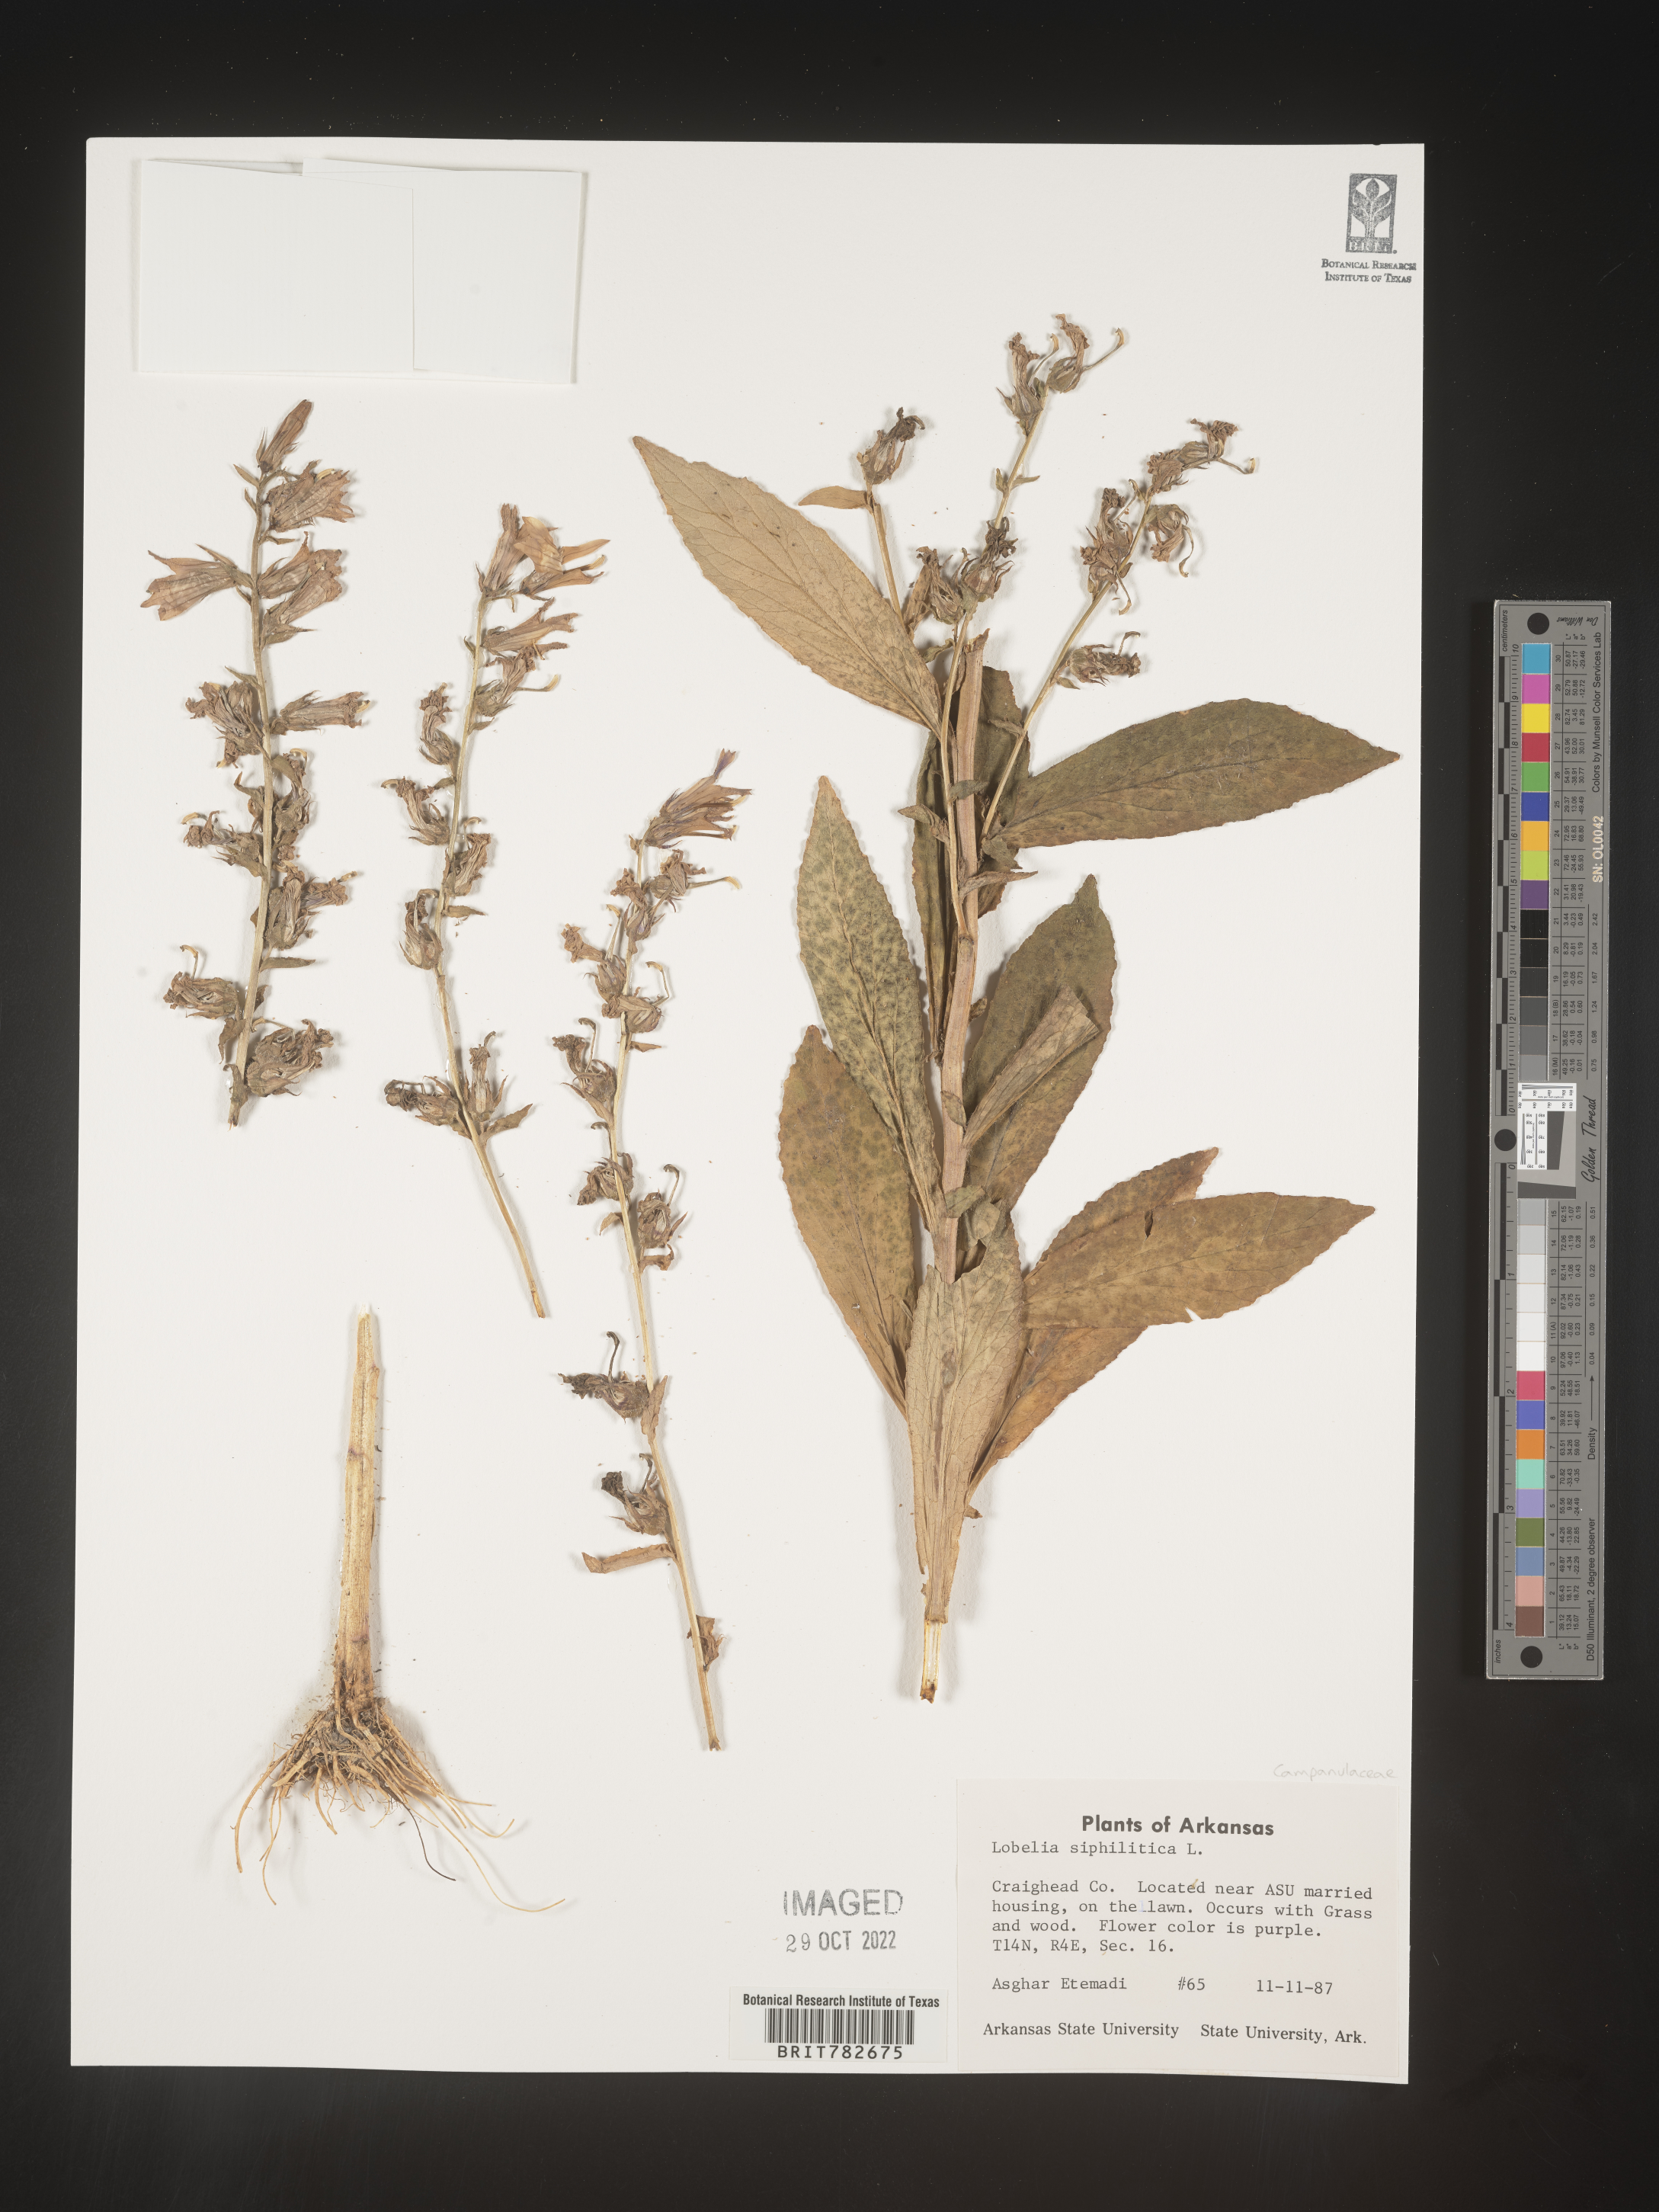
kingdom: Plantae
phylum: Tracheophyta
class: Magnoliopsida
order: Asterales
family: Campanulaceae
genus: Lobelia
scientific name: Lobelia siphilitica
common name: Great lobelia
